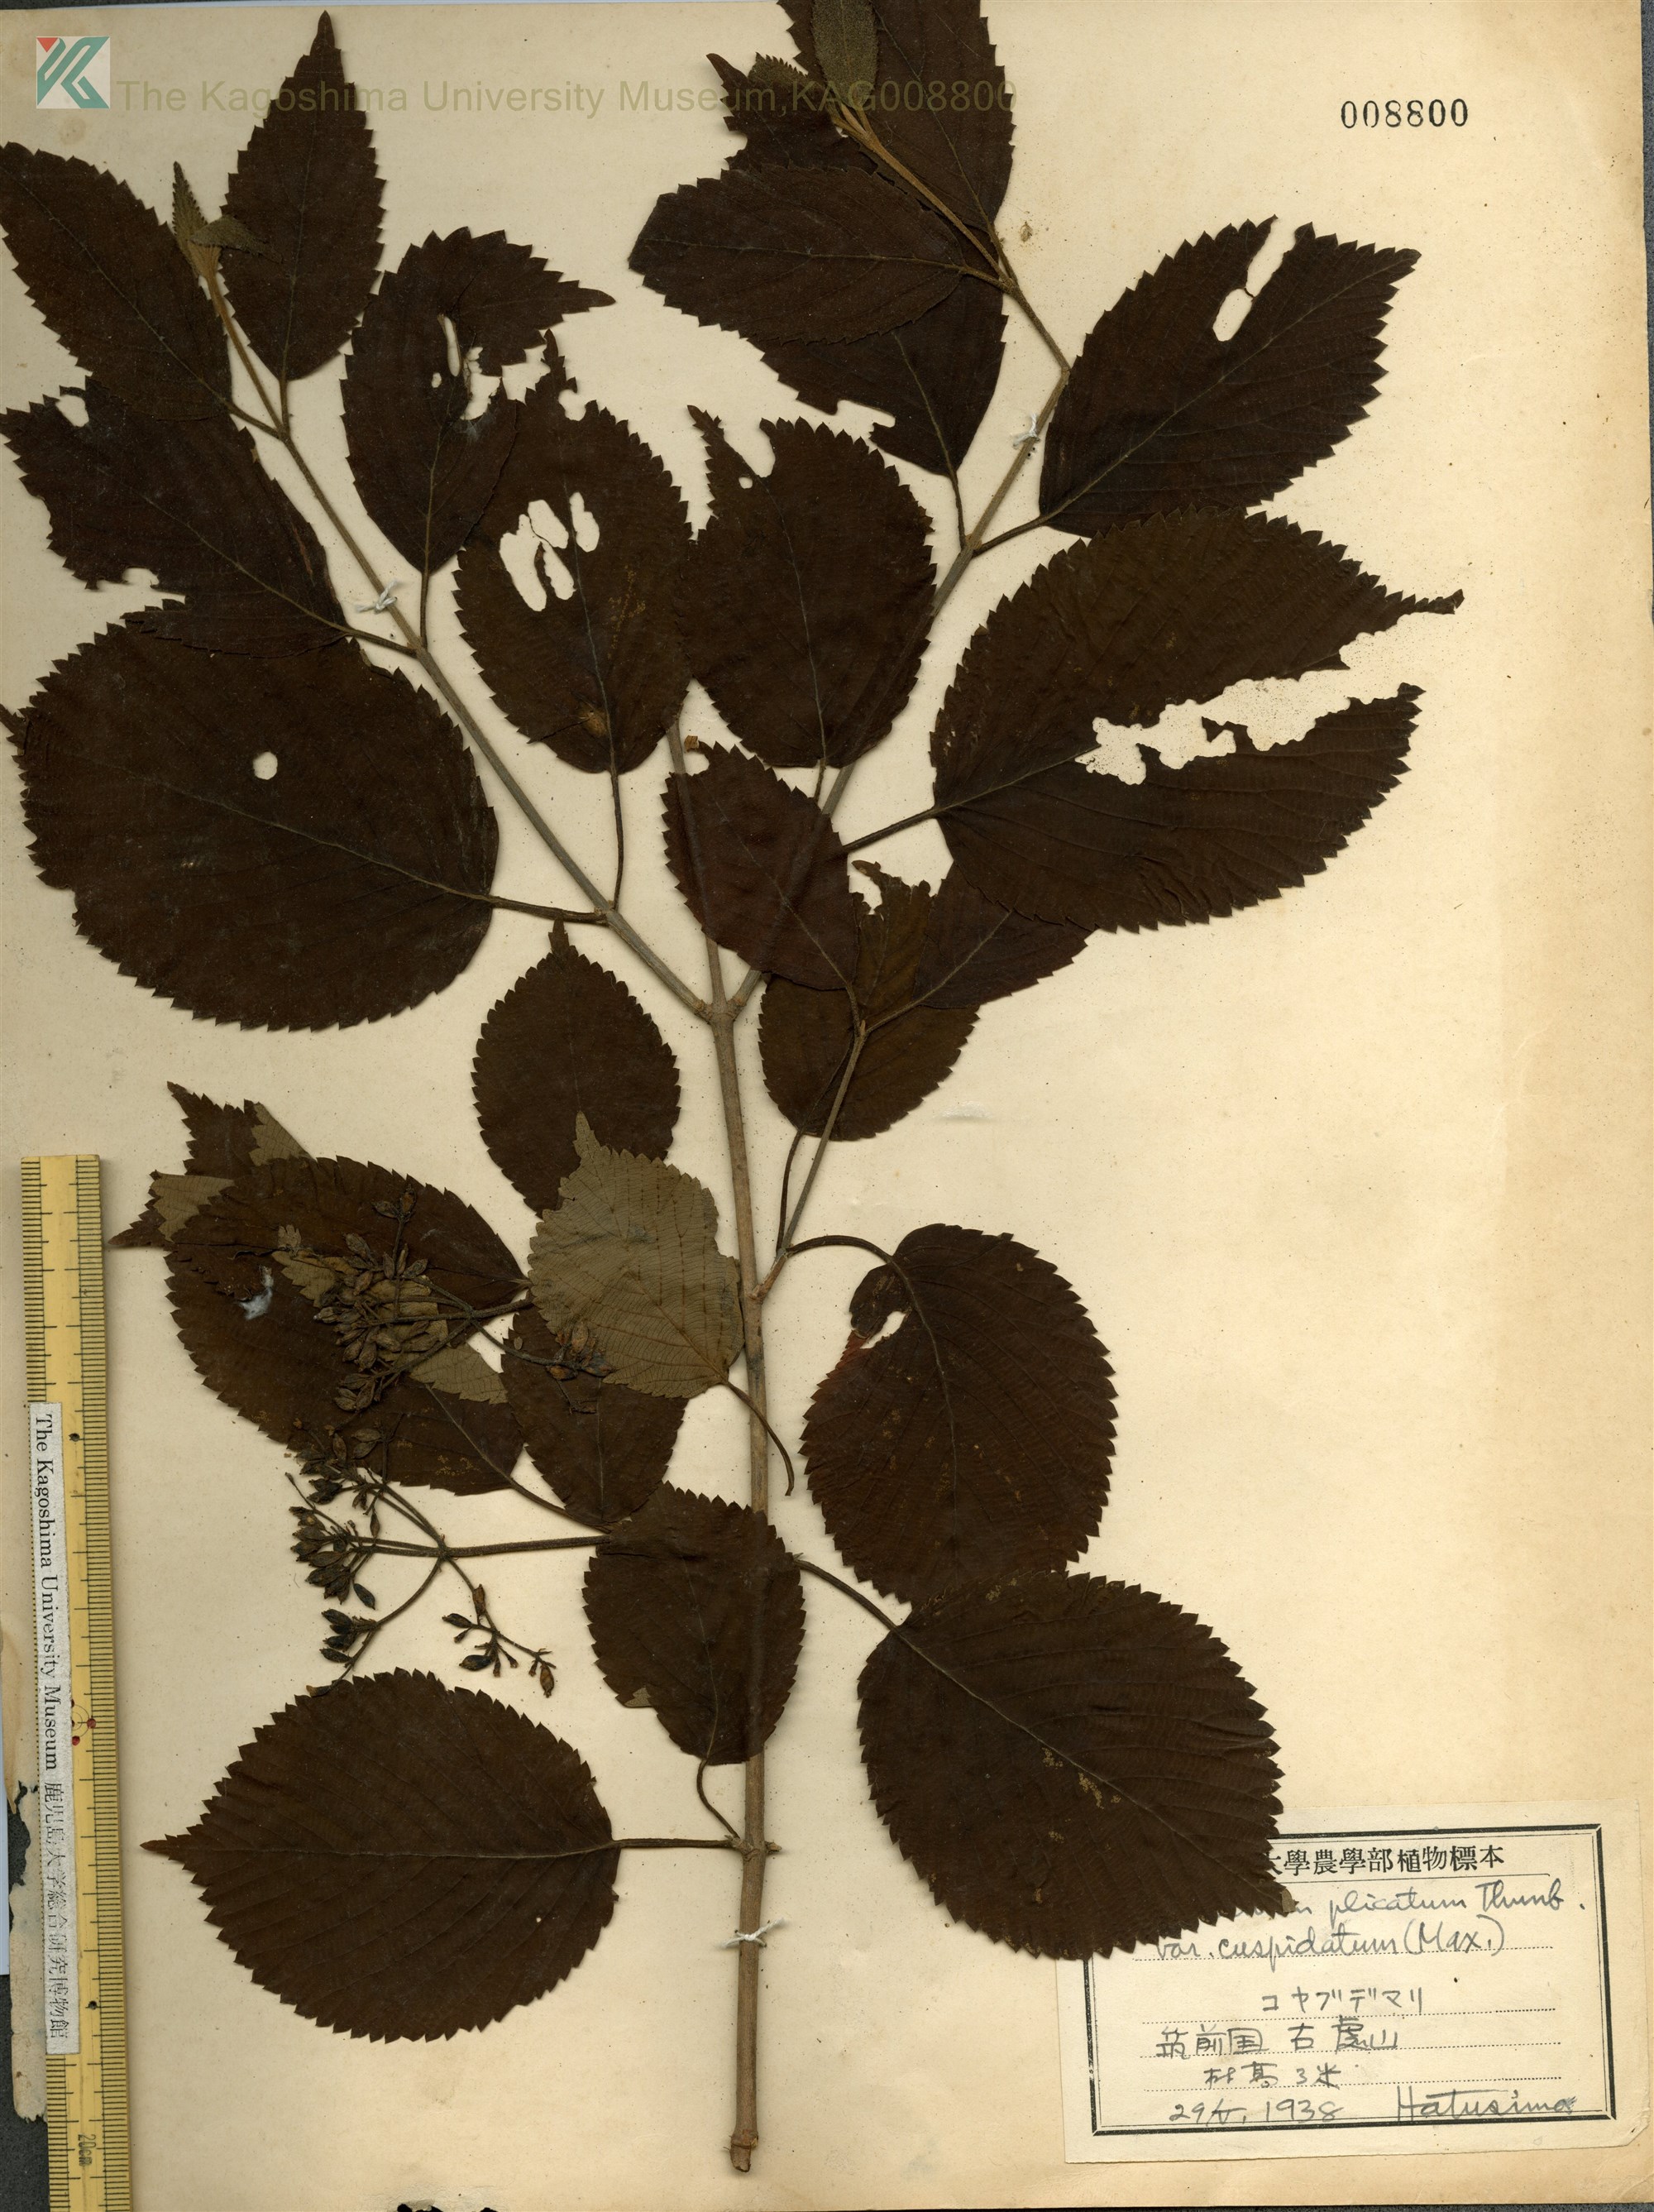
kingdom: Plantae
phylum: Tracheophyta
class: Magnoliopsida
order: Dipsacales
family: Viburnaceae
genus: Viburnum
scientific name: Viburnum plicatum
